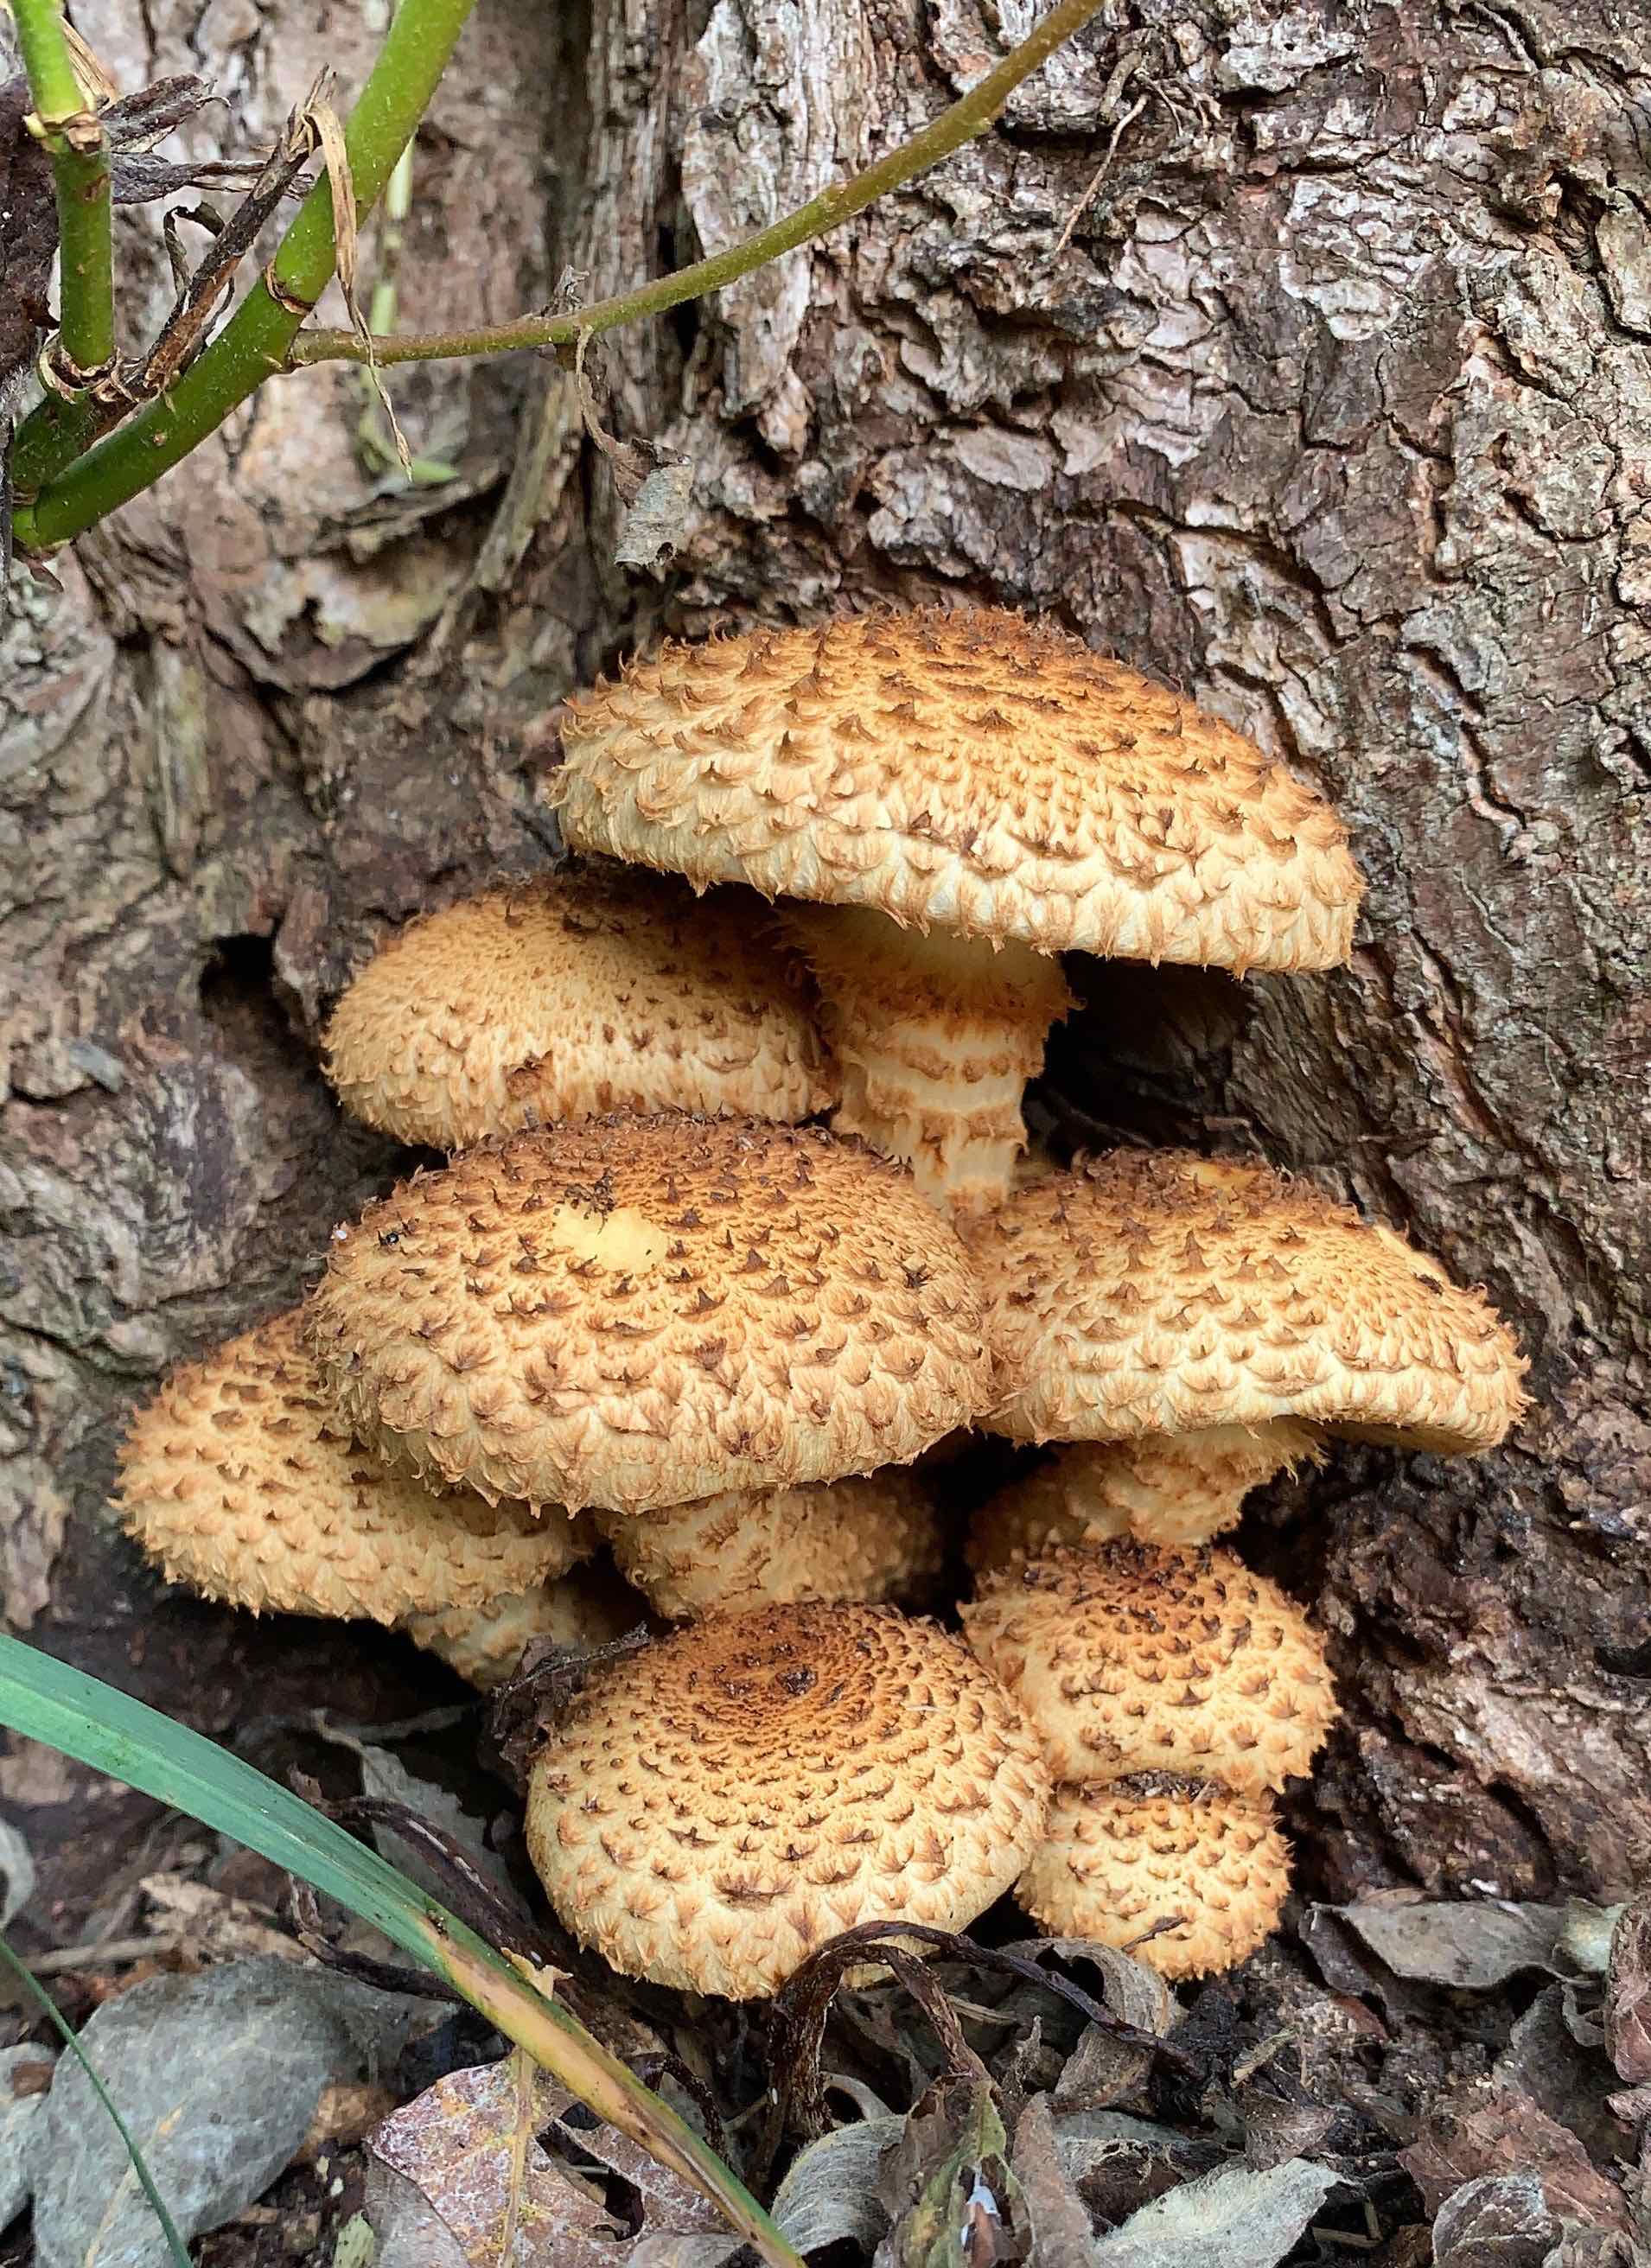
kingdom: Fungi
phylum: Basidiomycota
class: Agaricomycetes
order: Agaricales
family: Strophariaceae
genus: Pholiota
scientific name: Pholiota squarrosa
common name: krumskællet skælhat
